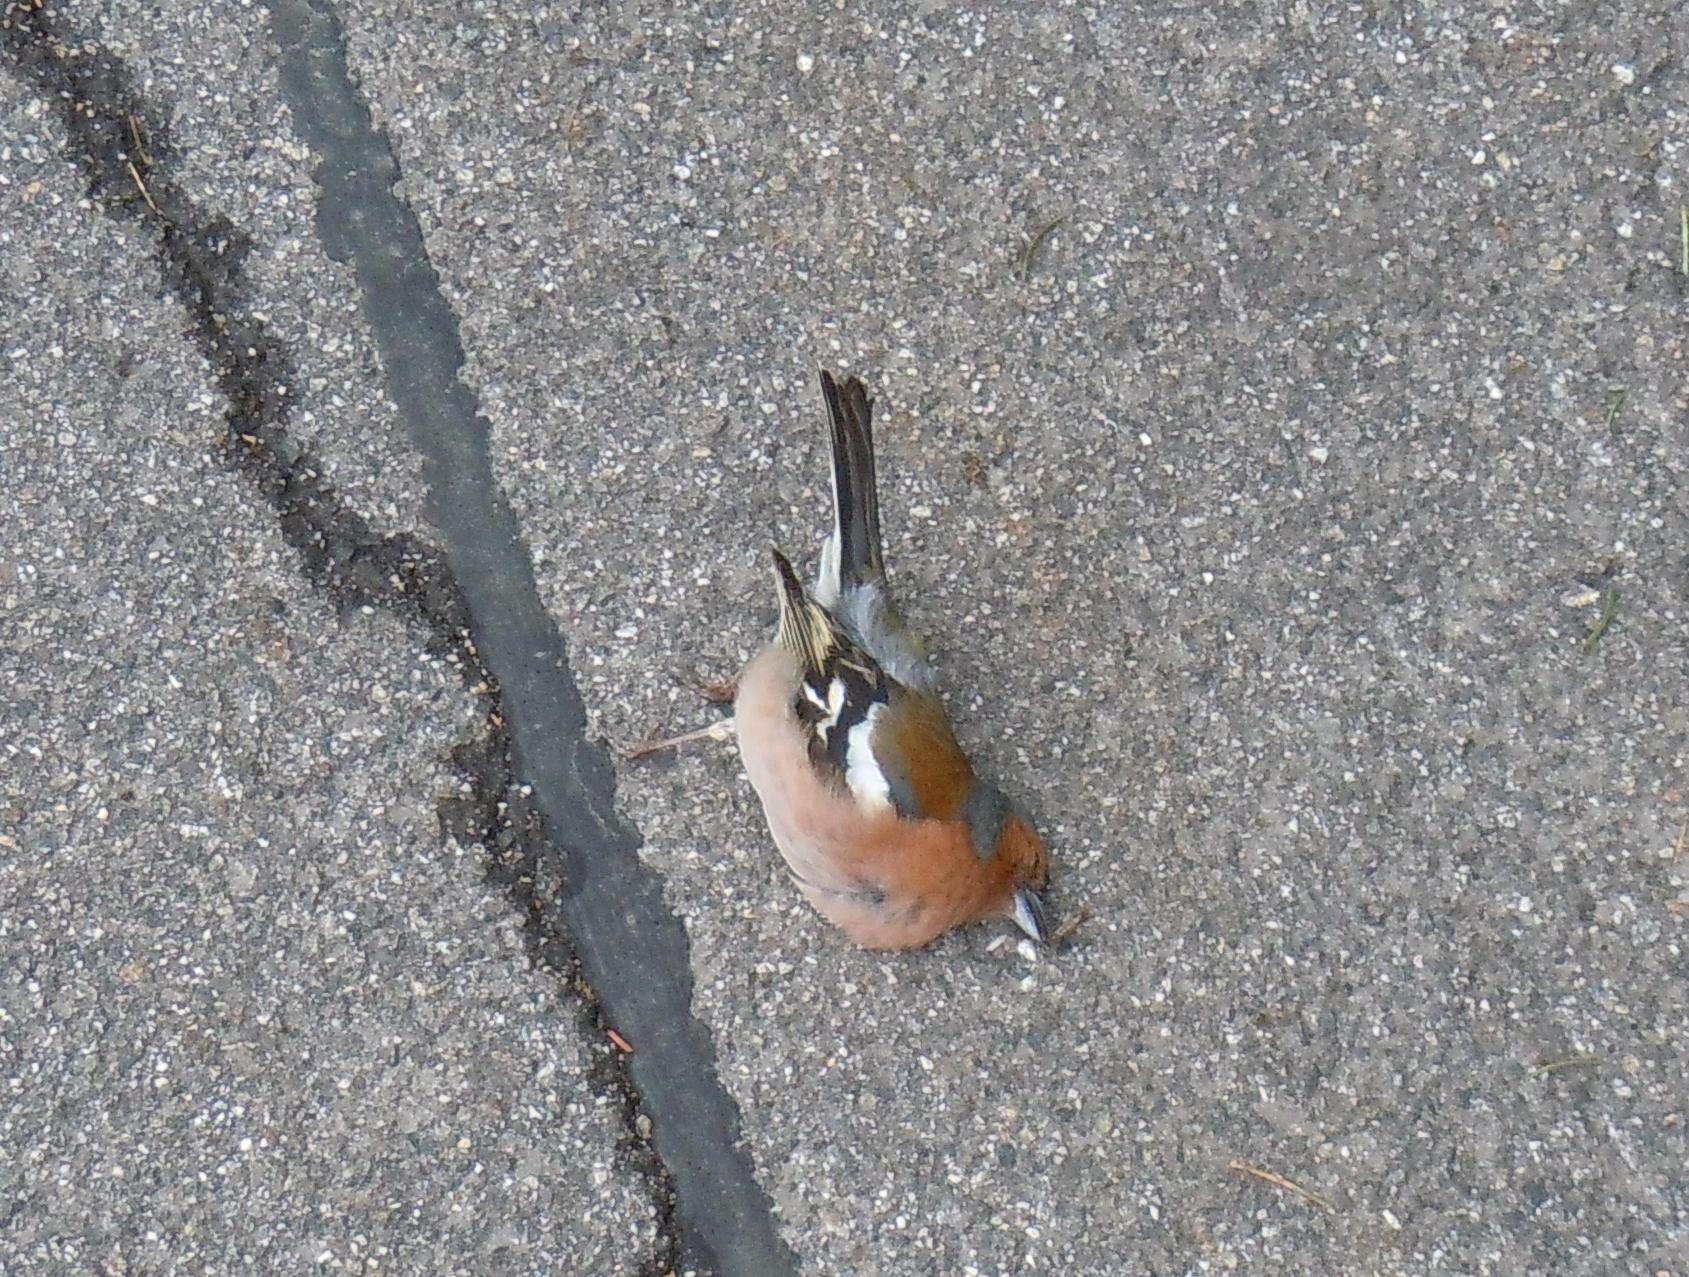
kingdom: Animalia
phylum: Chordata
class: Aves
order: Passeriformes
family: Fringillidae
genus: Fringilla
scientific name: Fringilla coelebs
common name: Common chaffinch
